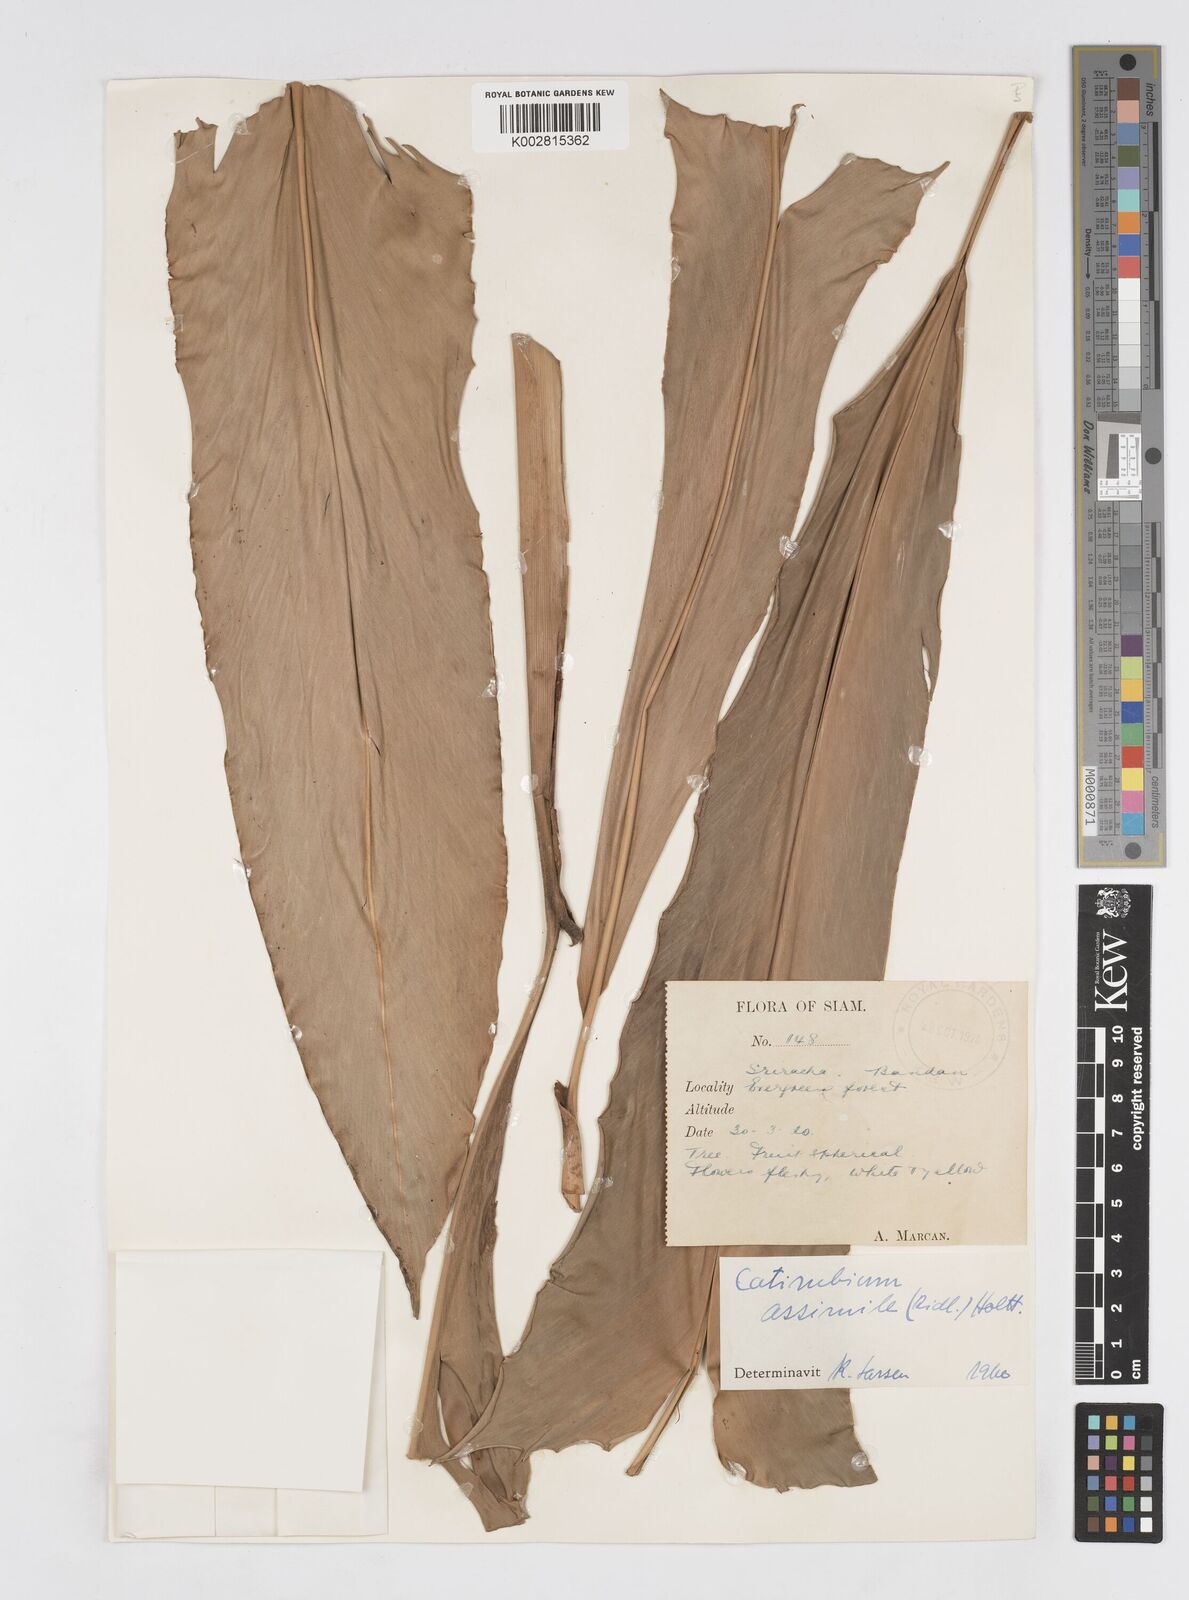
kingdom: Plantae
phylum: Tracheophyta
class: Liliopsida
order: Zingiberales
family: Zingiberaceae
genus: Alpinia
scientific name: Alpinia assimilis
